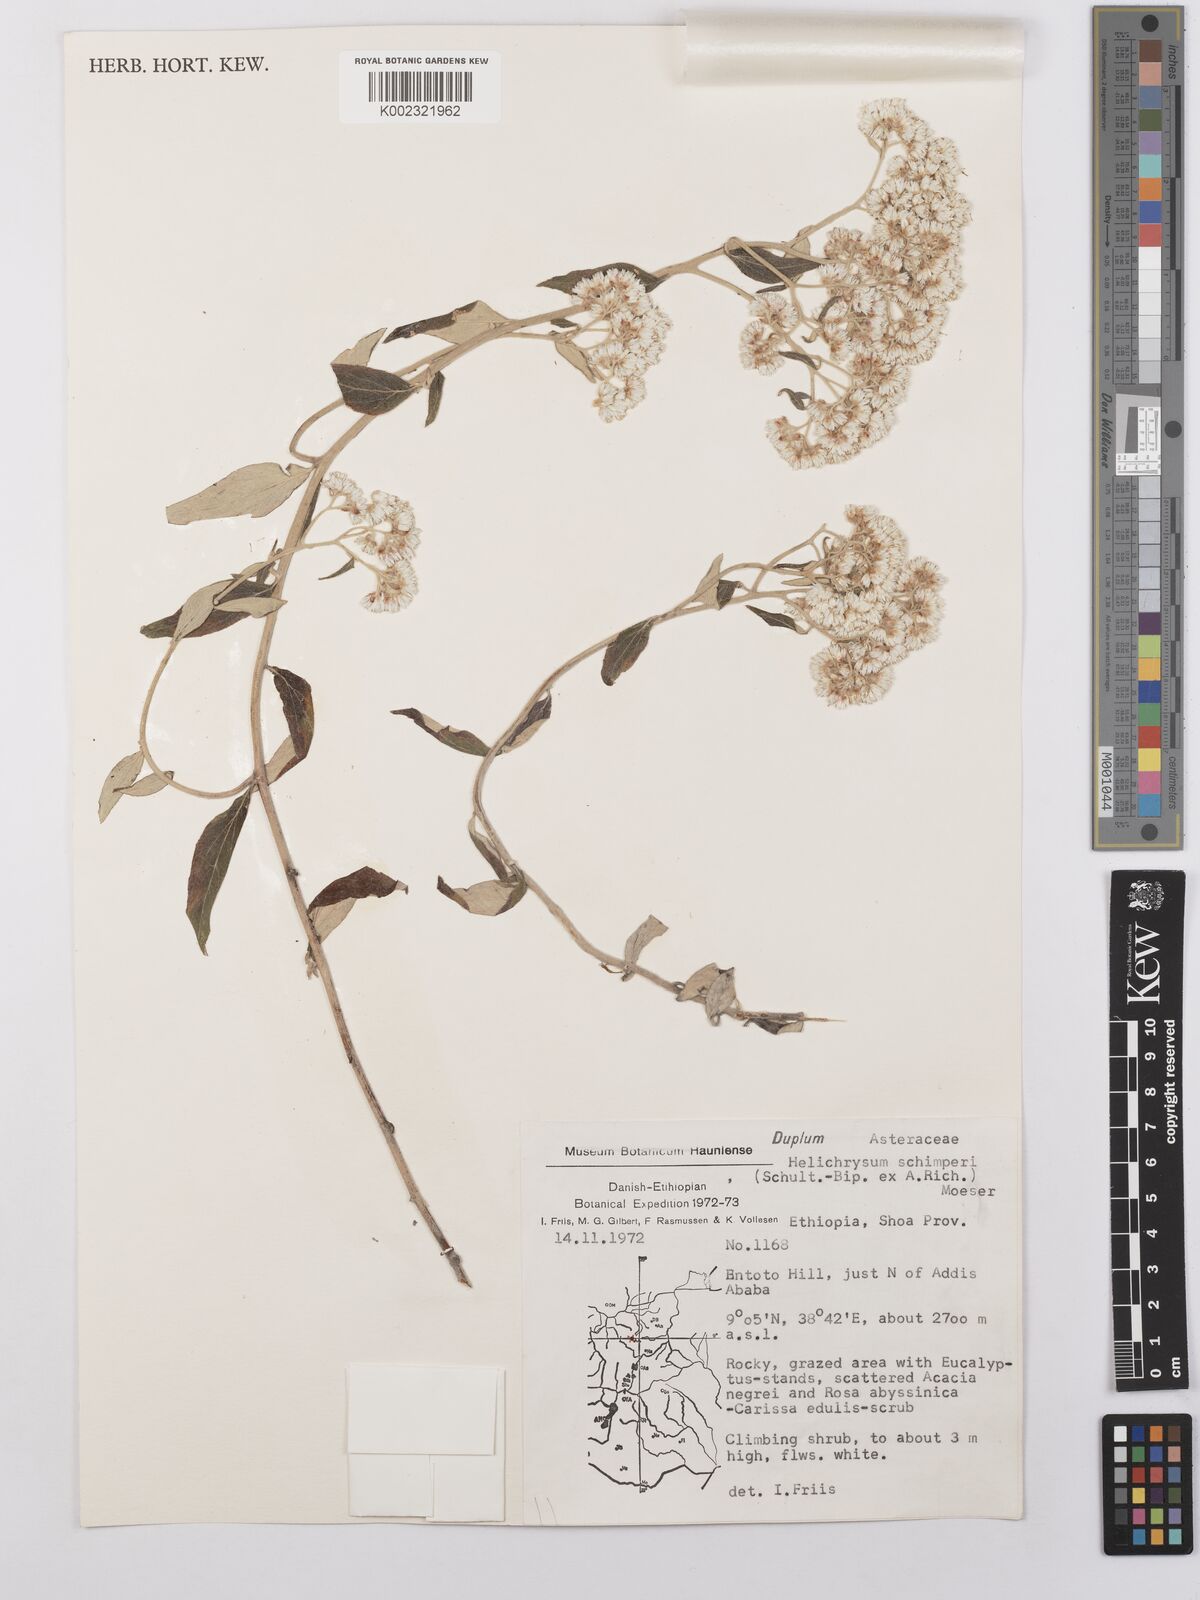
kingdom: Plantae
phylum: Tracheophyta
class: Magnoliopsida
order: Asterales
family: Asteraceae
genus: Helichrysum
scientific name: Helichrysum schimperi
